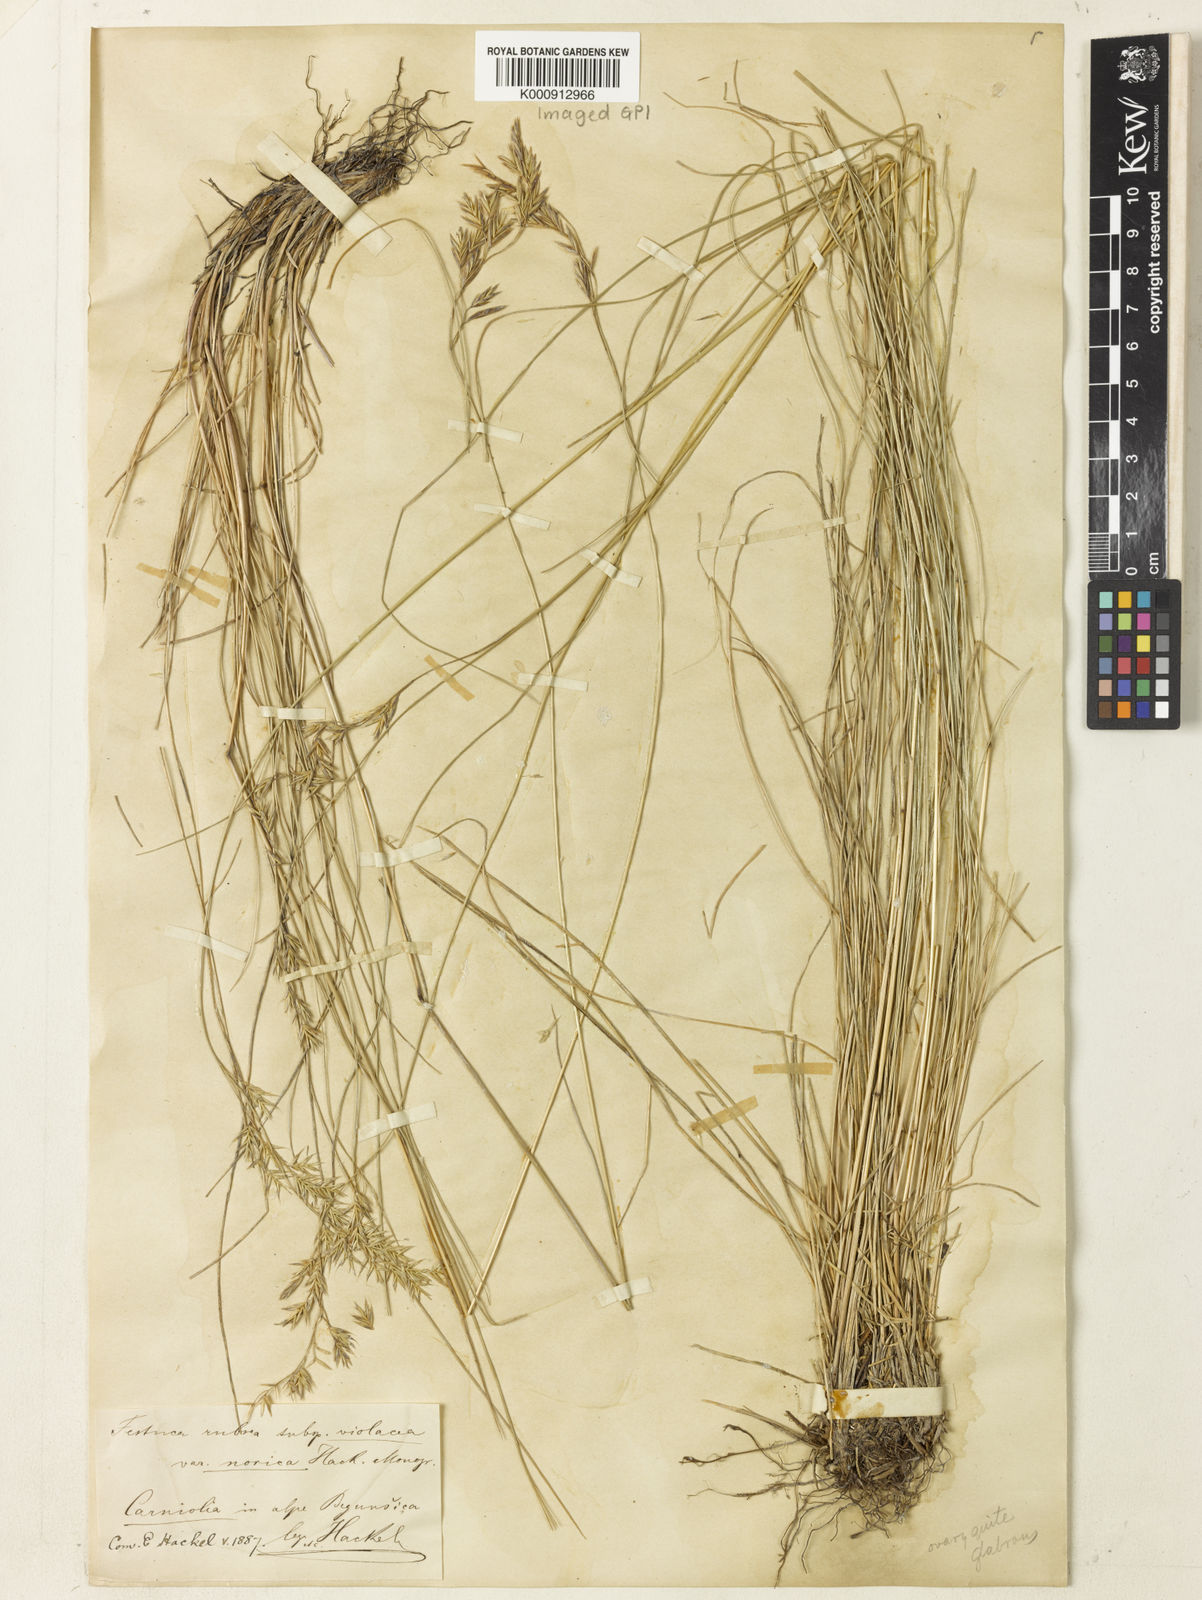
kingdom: Plantae
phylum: Tracheophyta
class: Liliopsida
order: Poales
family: Poaceae
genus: Festuca
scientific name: Festuca norica
